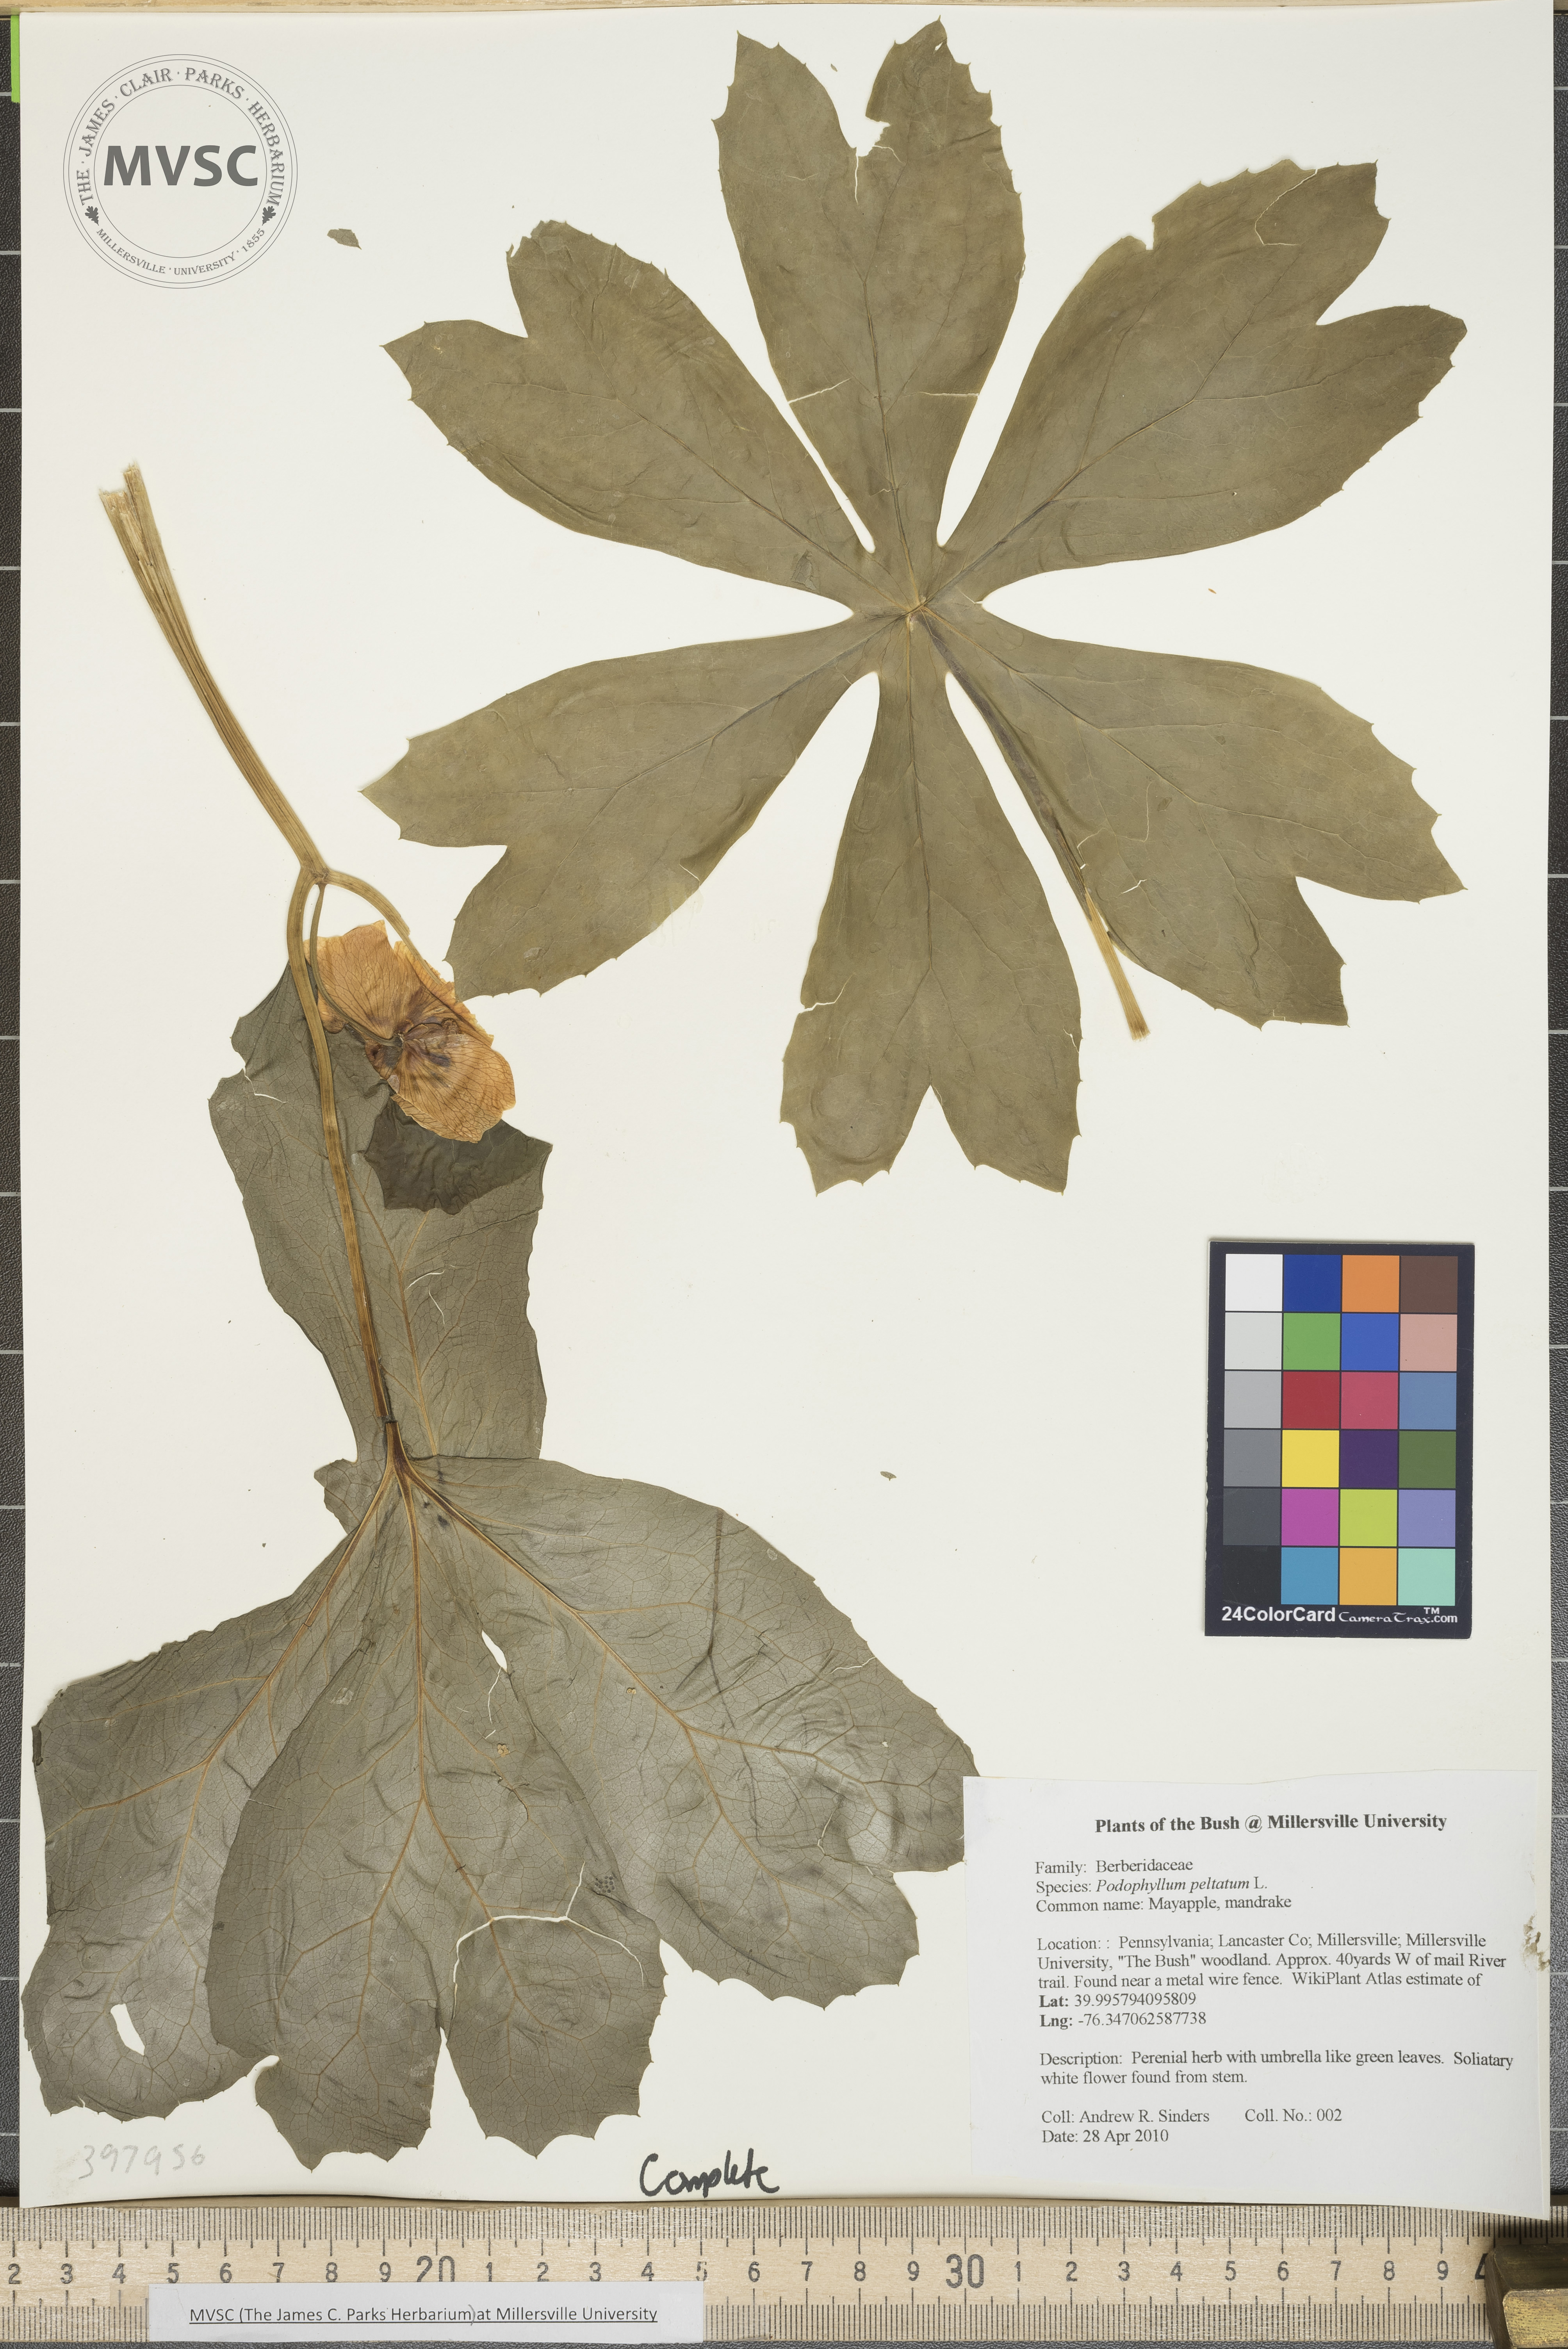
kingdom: Plantae
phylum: Tracheophyta
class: Magnoliopsida
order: Ranunculales
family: Berberidaceae
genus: Podophyllum
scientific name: Podophyllum peltatum
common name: Mayapple
